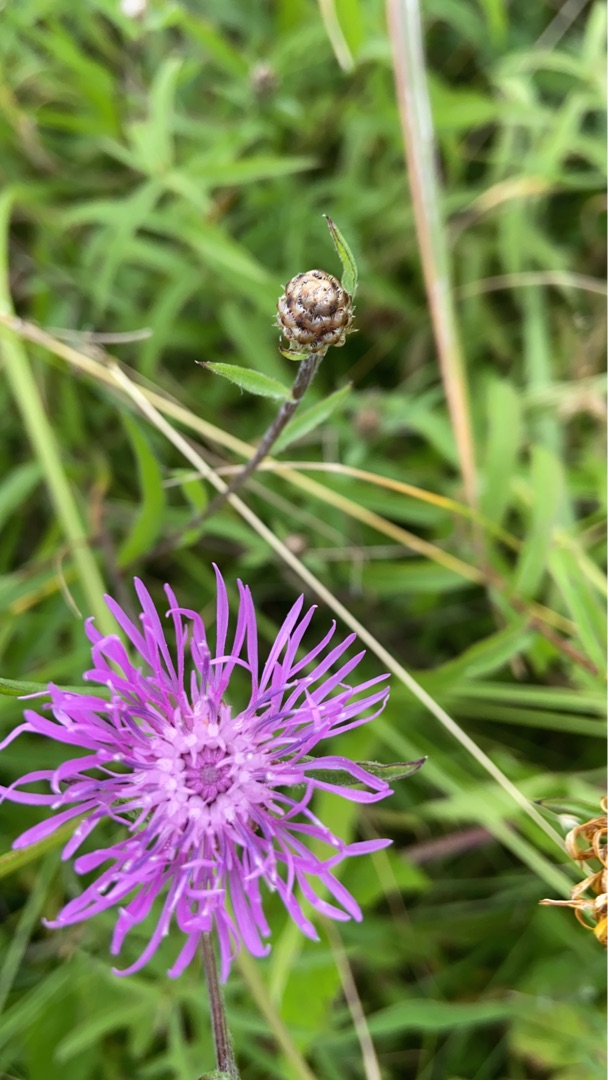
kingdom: Plantae
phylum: Tracheophyta
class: Magnoliopsida
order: Asterales
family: Asteraceae
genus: Centaurea
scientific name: Centaurea jacea
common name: Almindelig knopurt
